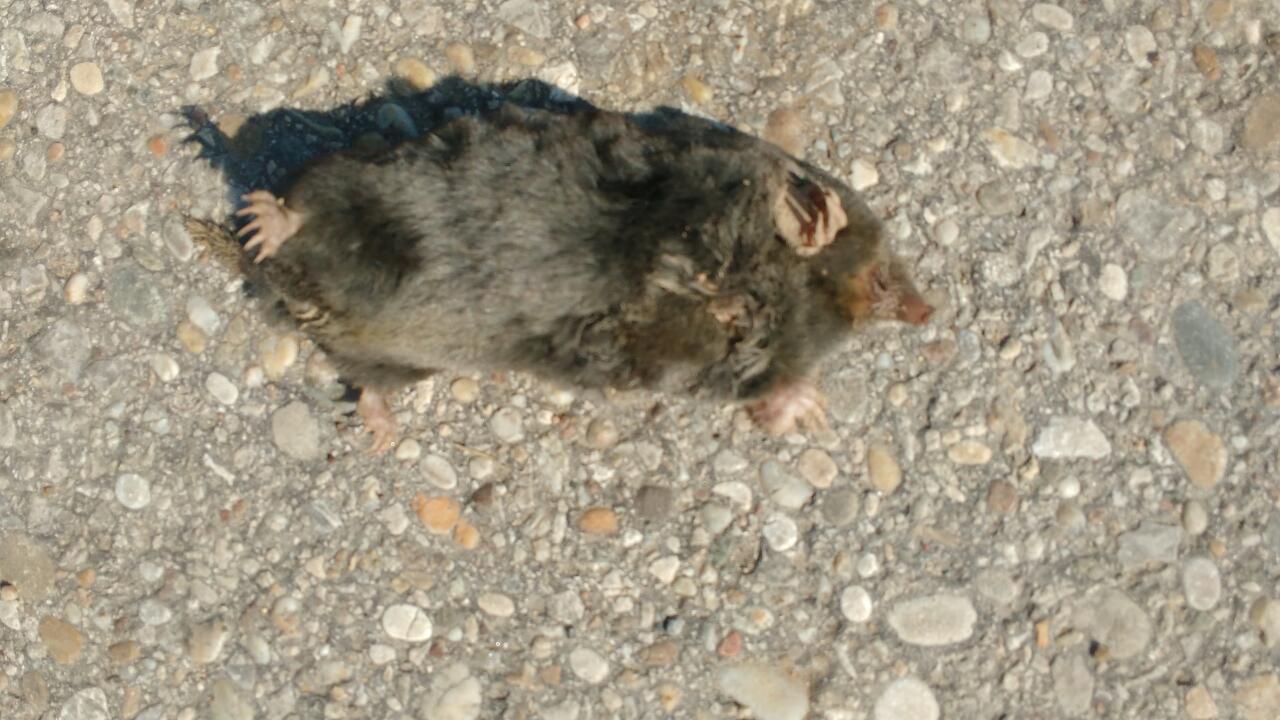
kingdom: Animalia
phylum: Chordata
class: Mammalia
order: Soricomorpha
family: Talpidae
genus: Talpa
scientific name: Talpa europaea
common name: European mole
